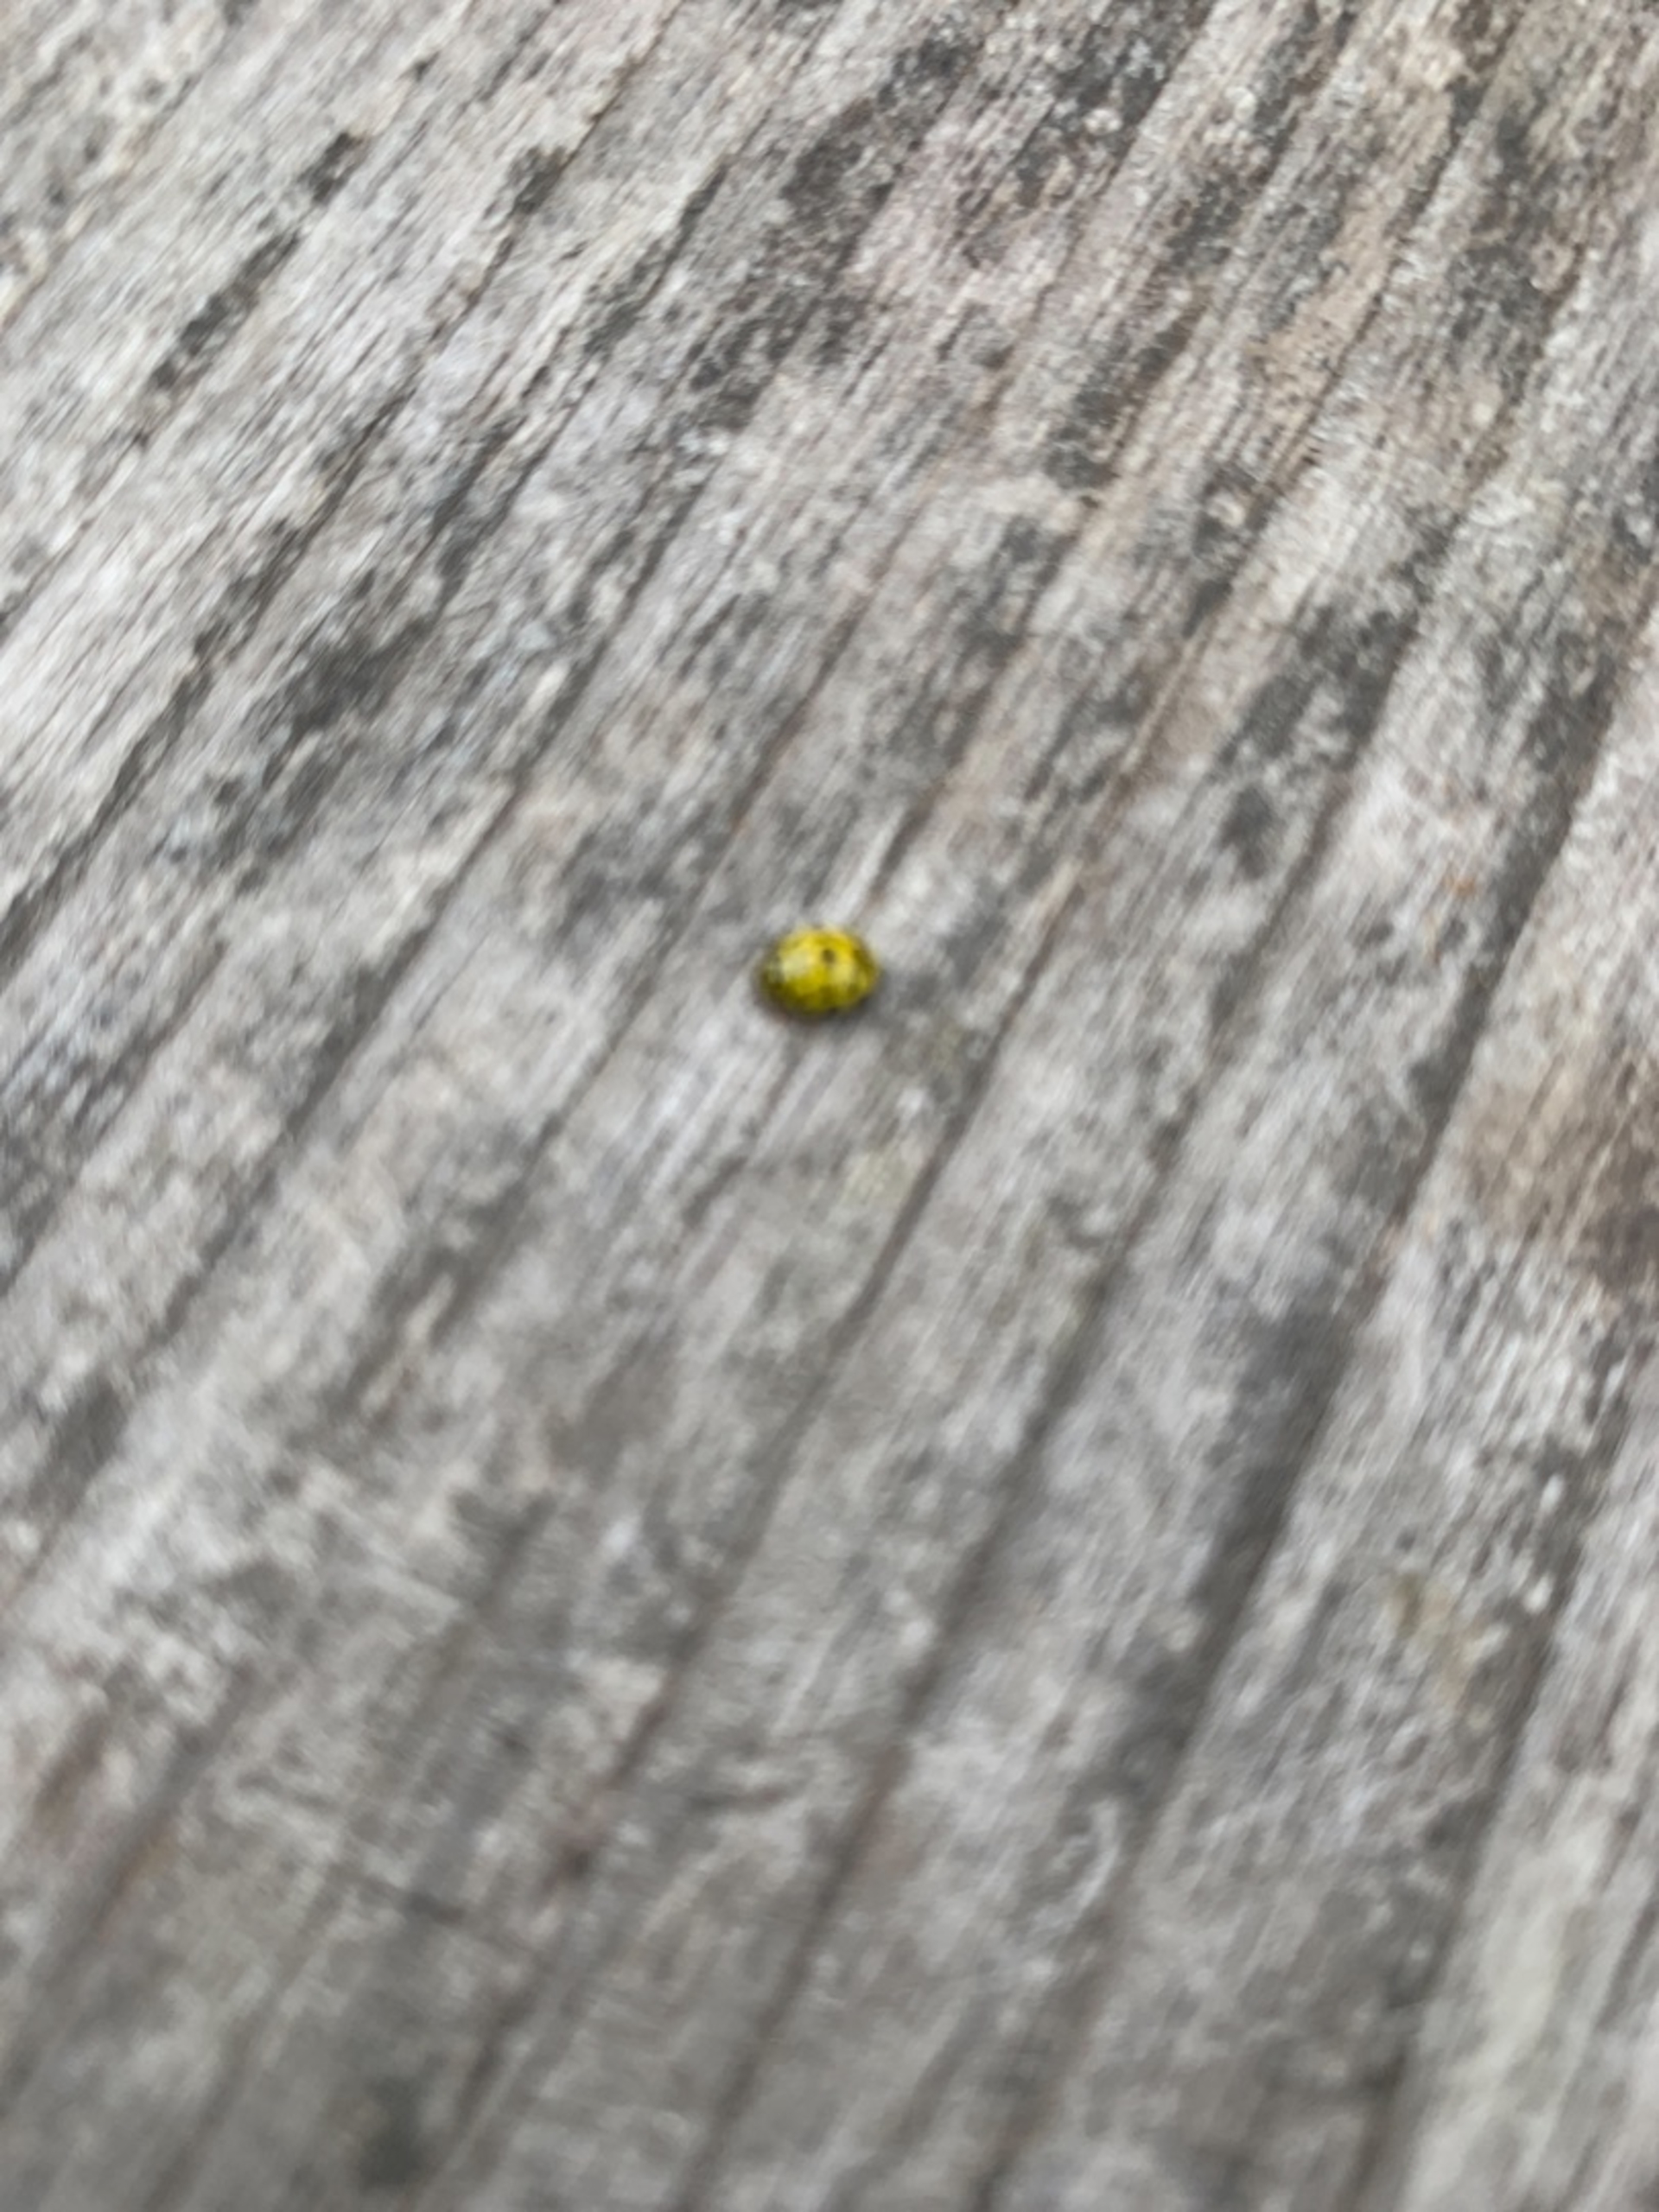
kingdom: Animalia
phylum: Arthropoda
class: Insecta
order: Coleoptera
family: Coccinellidae
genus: Psyllobora
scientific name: Psyllobora vigintiduopunctata
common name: Toogtyveplettet mariehøne
